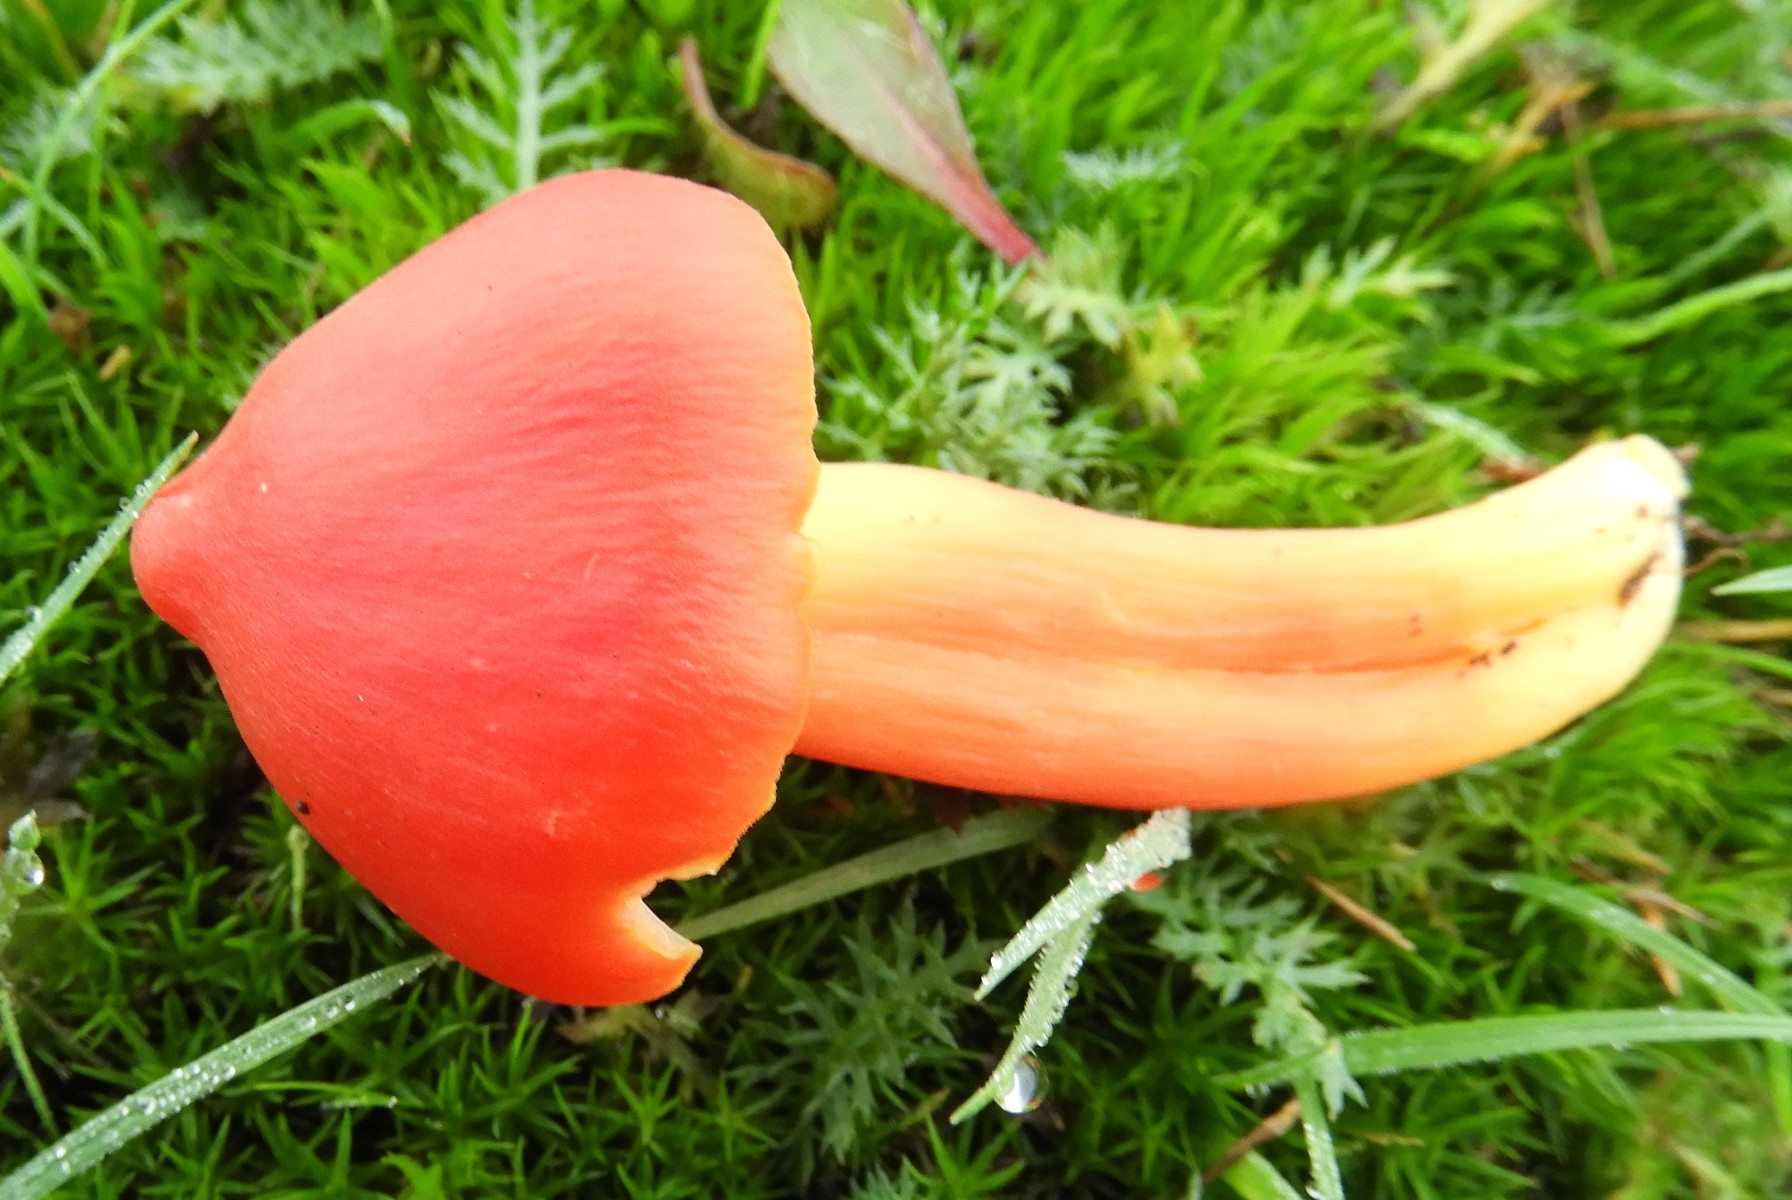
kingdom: Fungi
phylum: Basidiomycota
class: Agaricomycetes
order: Agaricales
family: Hygrophoraceae
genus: Hygrocybe
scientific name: Hygrocybe miniata
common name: mønje-vokshat
